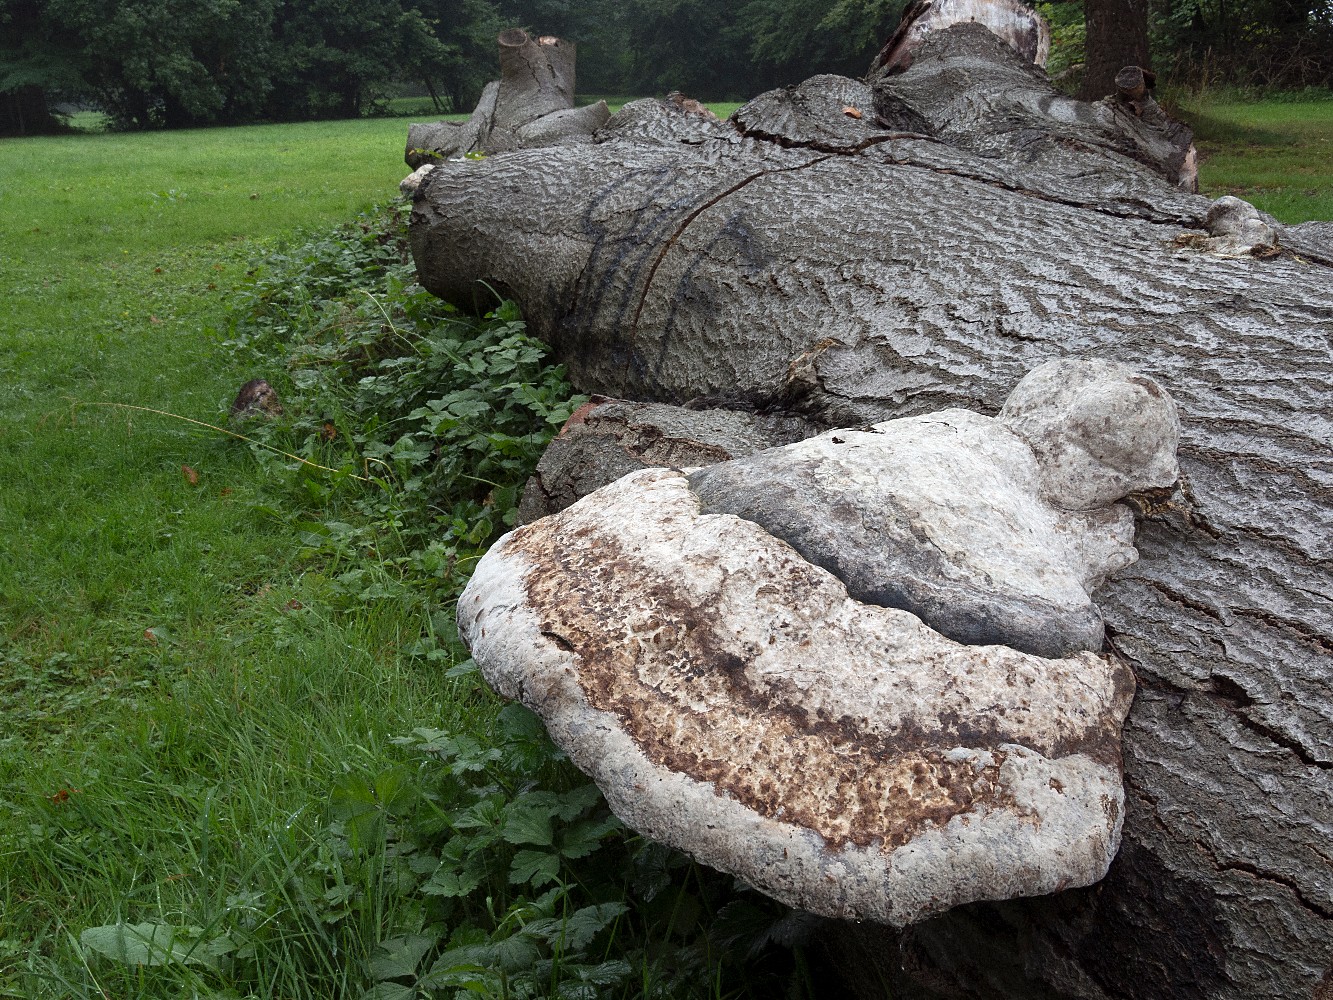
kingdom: Fungi
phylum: Basidiomycota
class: Agaricomycetes
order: Polyporales
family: Polyporaceae
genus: Fomes
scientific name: Fomes fomentarius
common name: tøndersvamp
